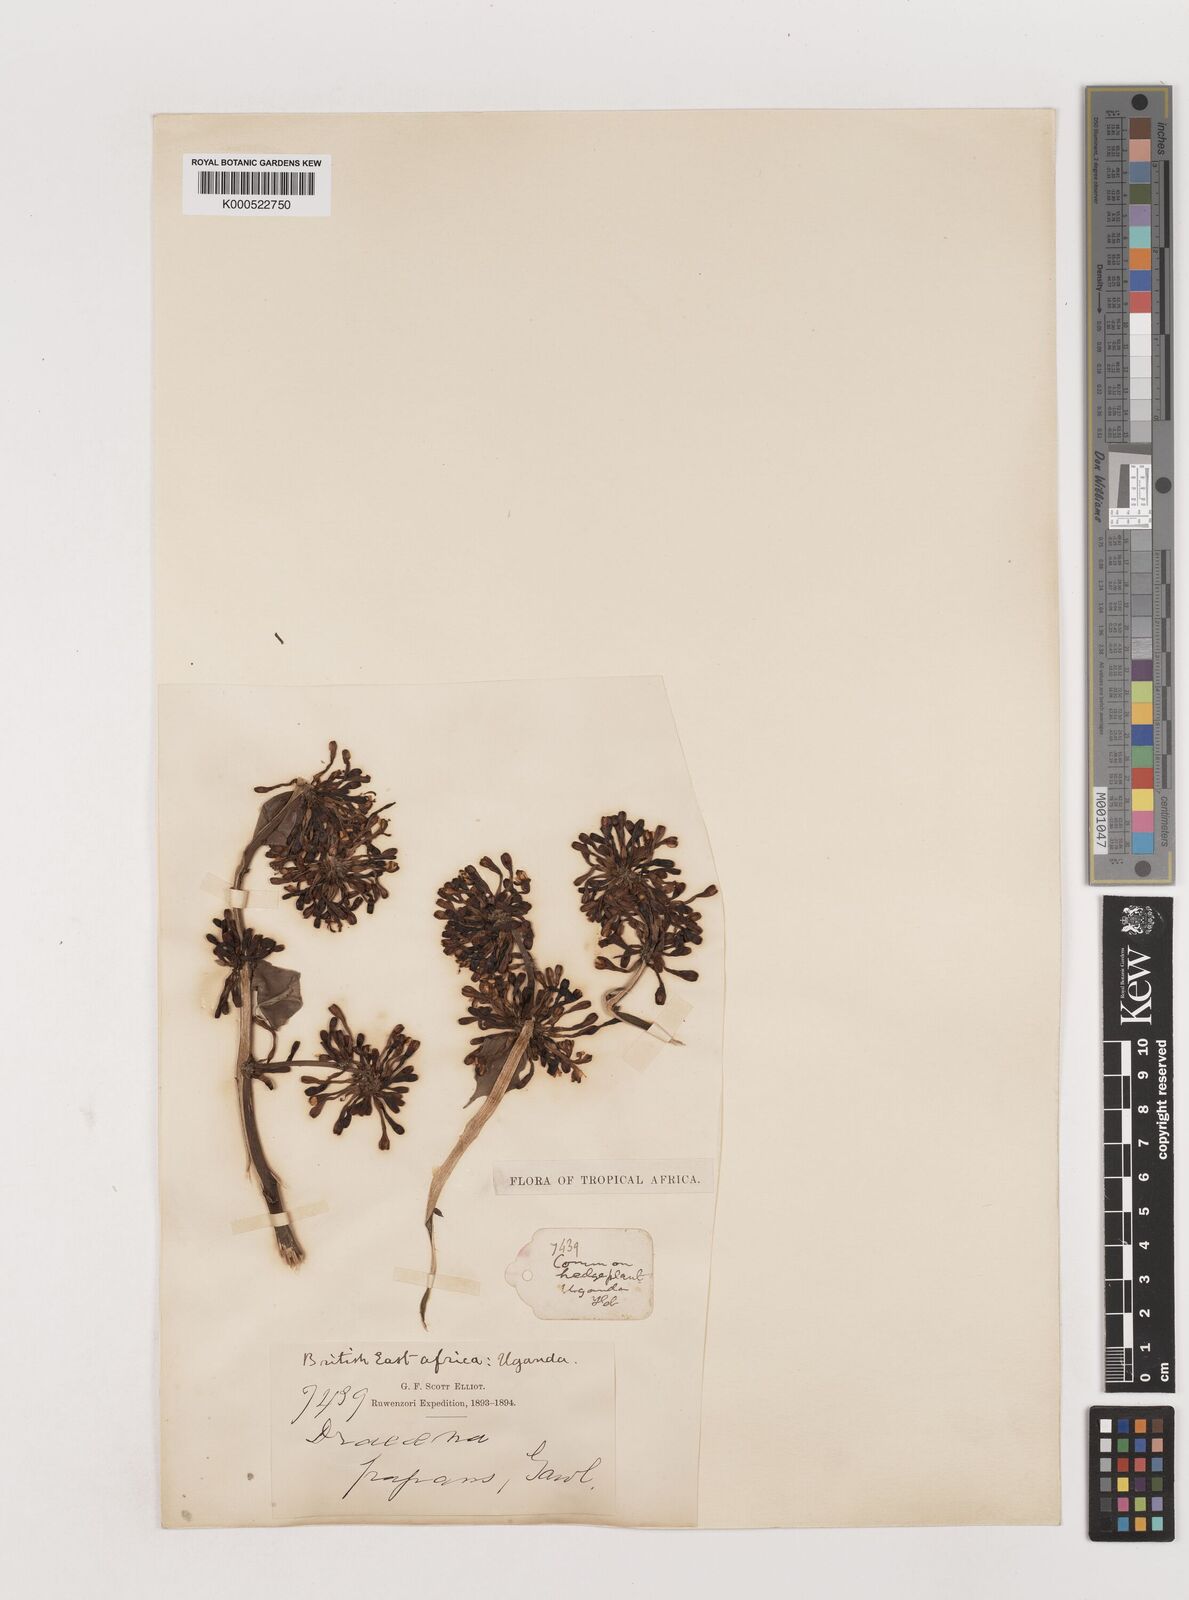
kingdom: Plantae
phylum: Tracheophyta
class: Liliopsida
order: Asparagales
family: Asparagaceae
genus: Dracaena
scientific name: Dracaena fragrans
